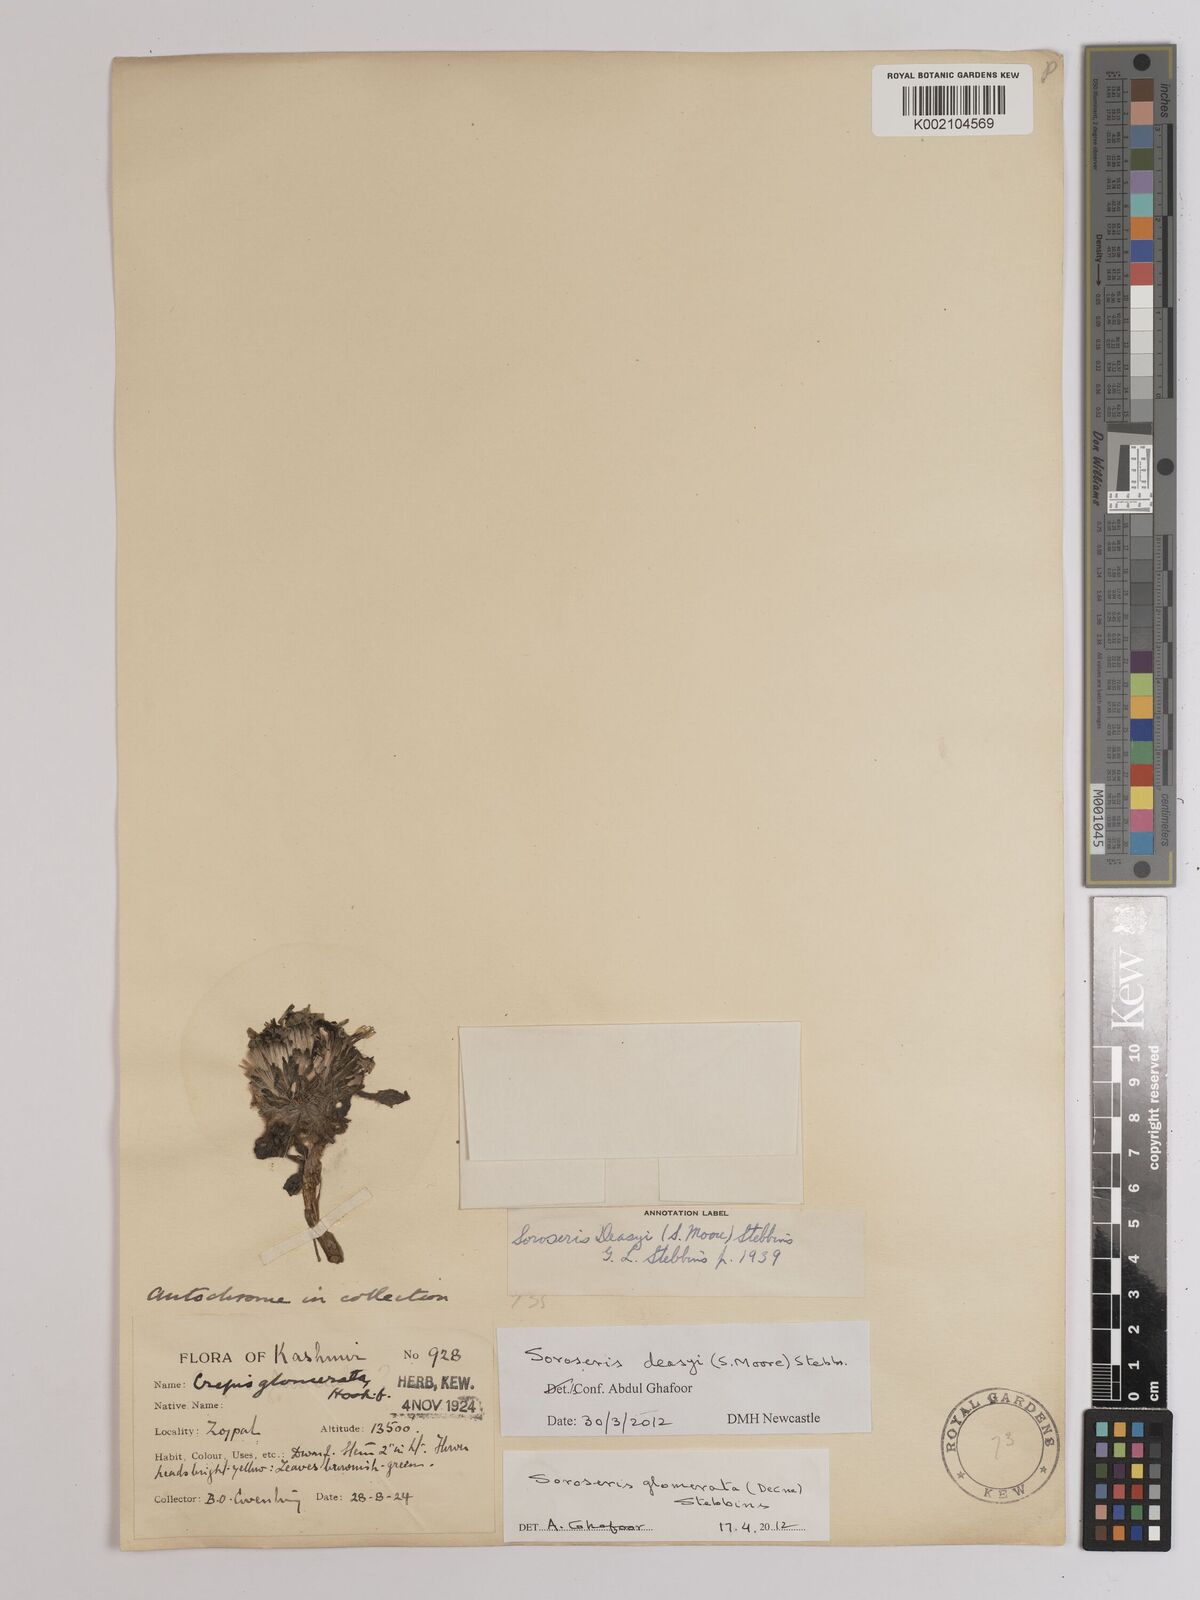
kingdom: Plantae
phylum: Tracheophyta
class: Magnoliopsida
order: Asterales
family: Asteraceae
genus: Soroseris
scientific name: Soroseris deasyi
